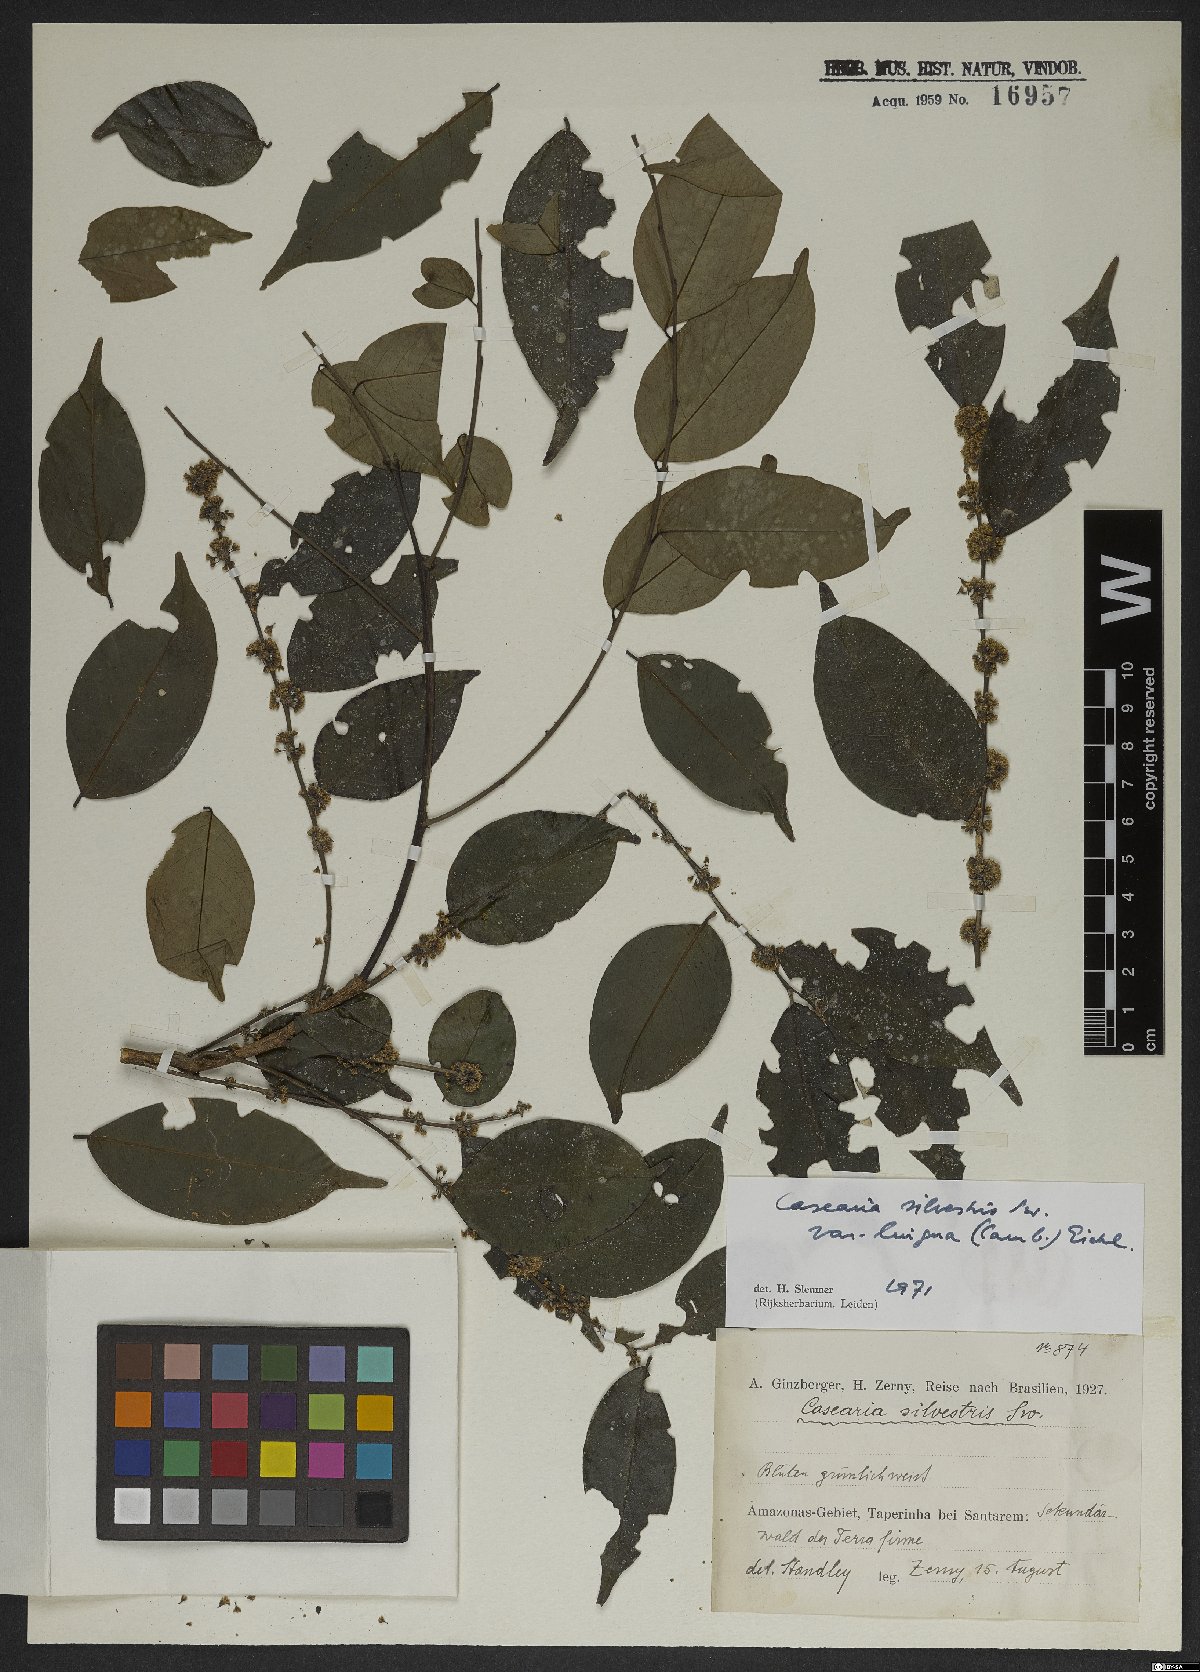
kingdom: Plantae
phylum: Tracheophyta
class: Magnoliopsida
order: Malpighiales
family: Salicaceae
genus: Casearia
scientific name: Casearia sylvestris
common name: Wild sage
